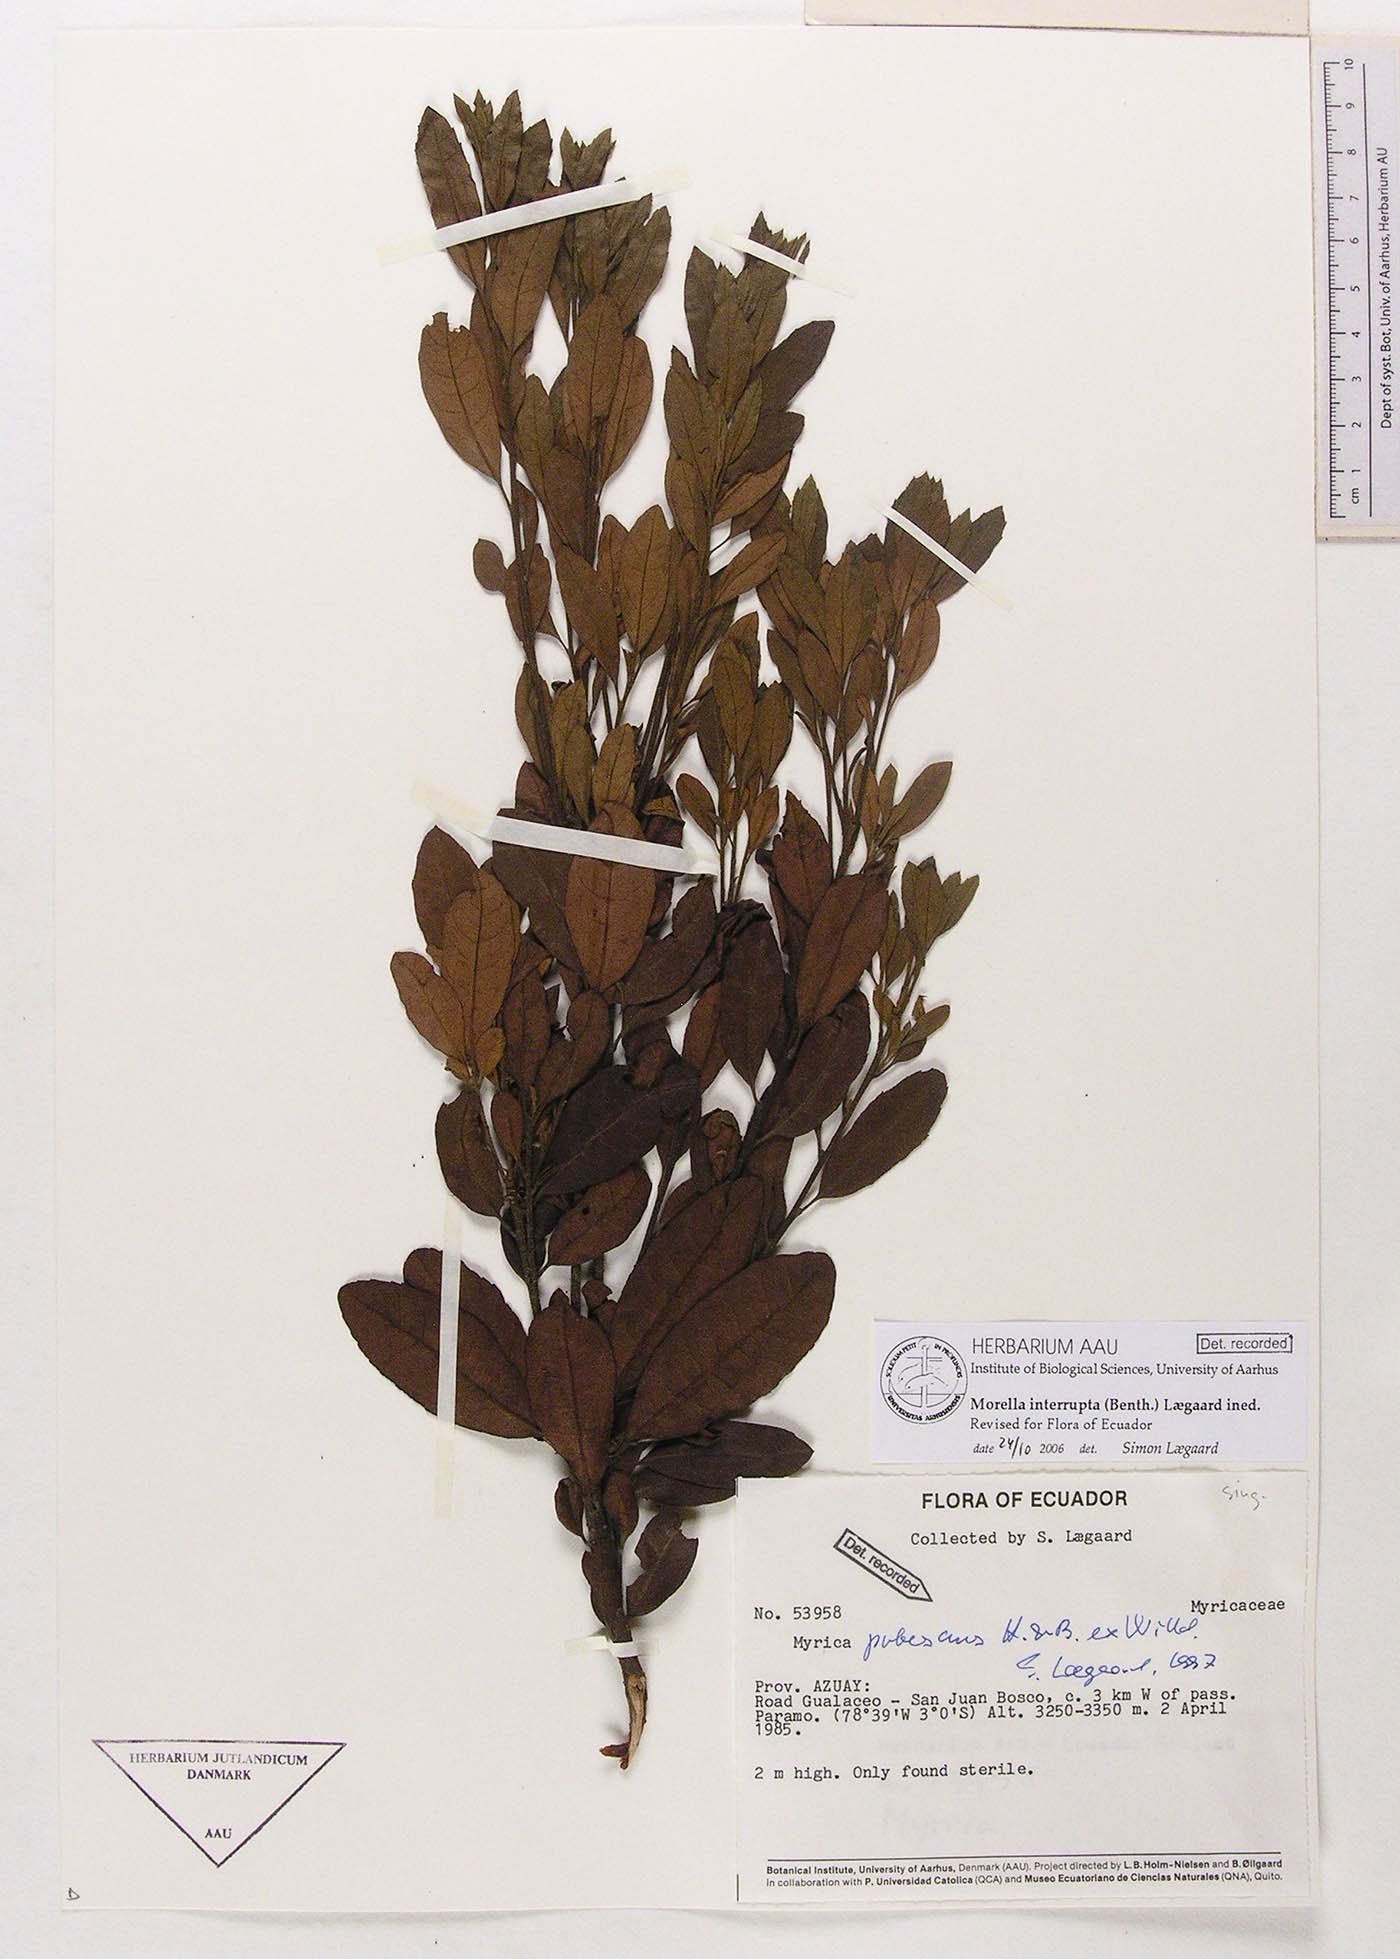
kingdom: Plantae
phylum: Tracheophyta
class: Magnoliopsida
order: Fagales
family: Myricaceae
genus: Morella
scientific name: Morella interrupta
